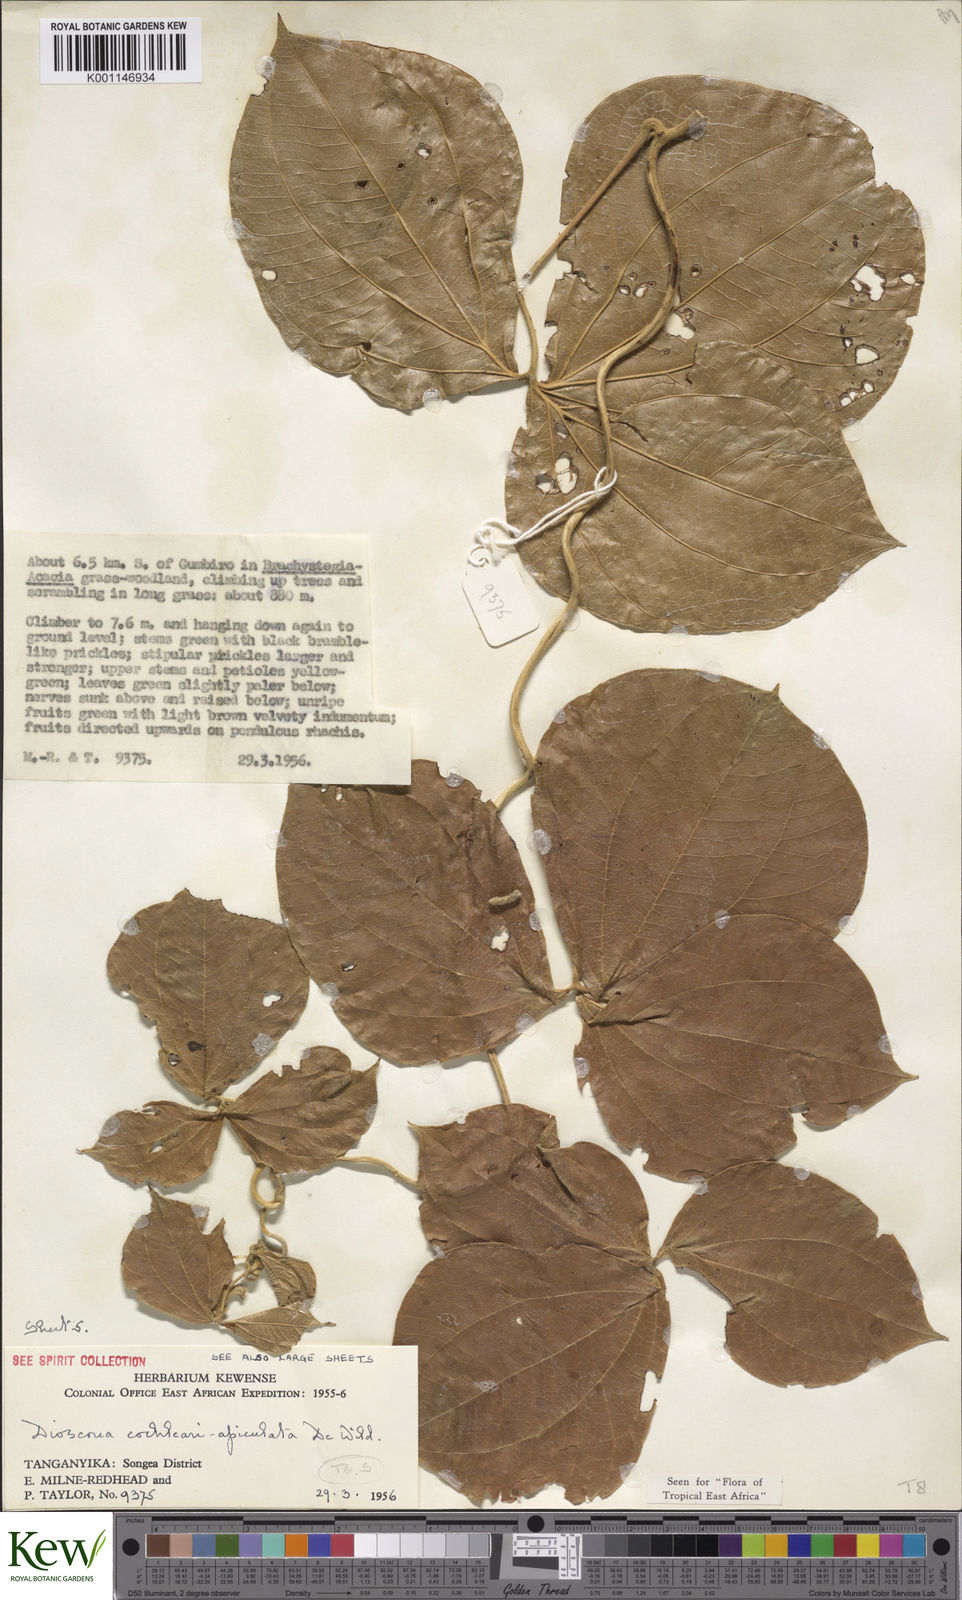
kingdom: Plantae
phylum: Tracheophyta
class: Liliopsida
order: Dioscoreales
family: Dioscoreaceae
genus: Dioscorea
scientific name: Dioscorea cochleariapiculata
